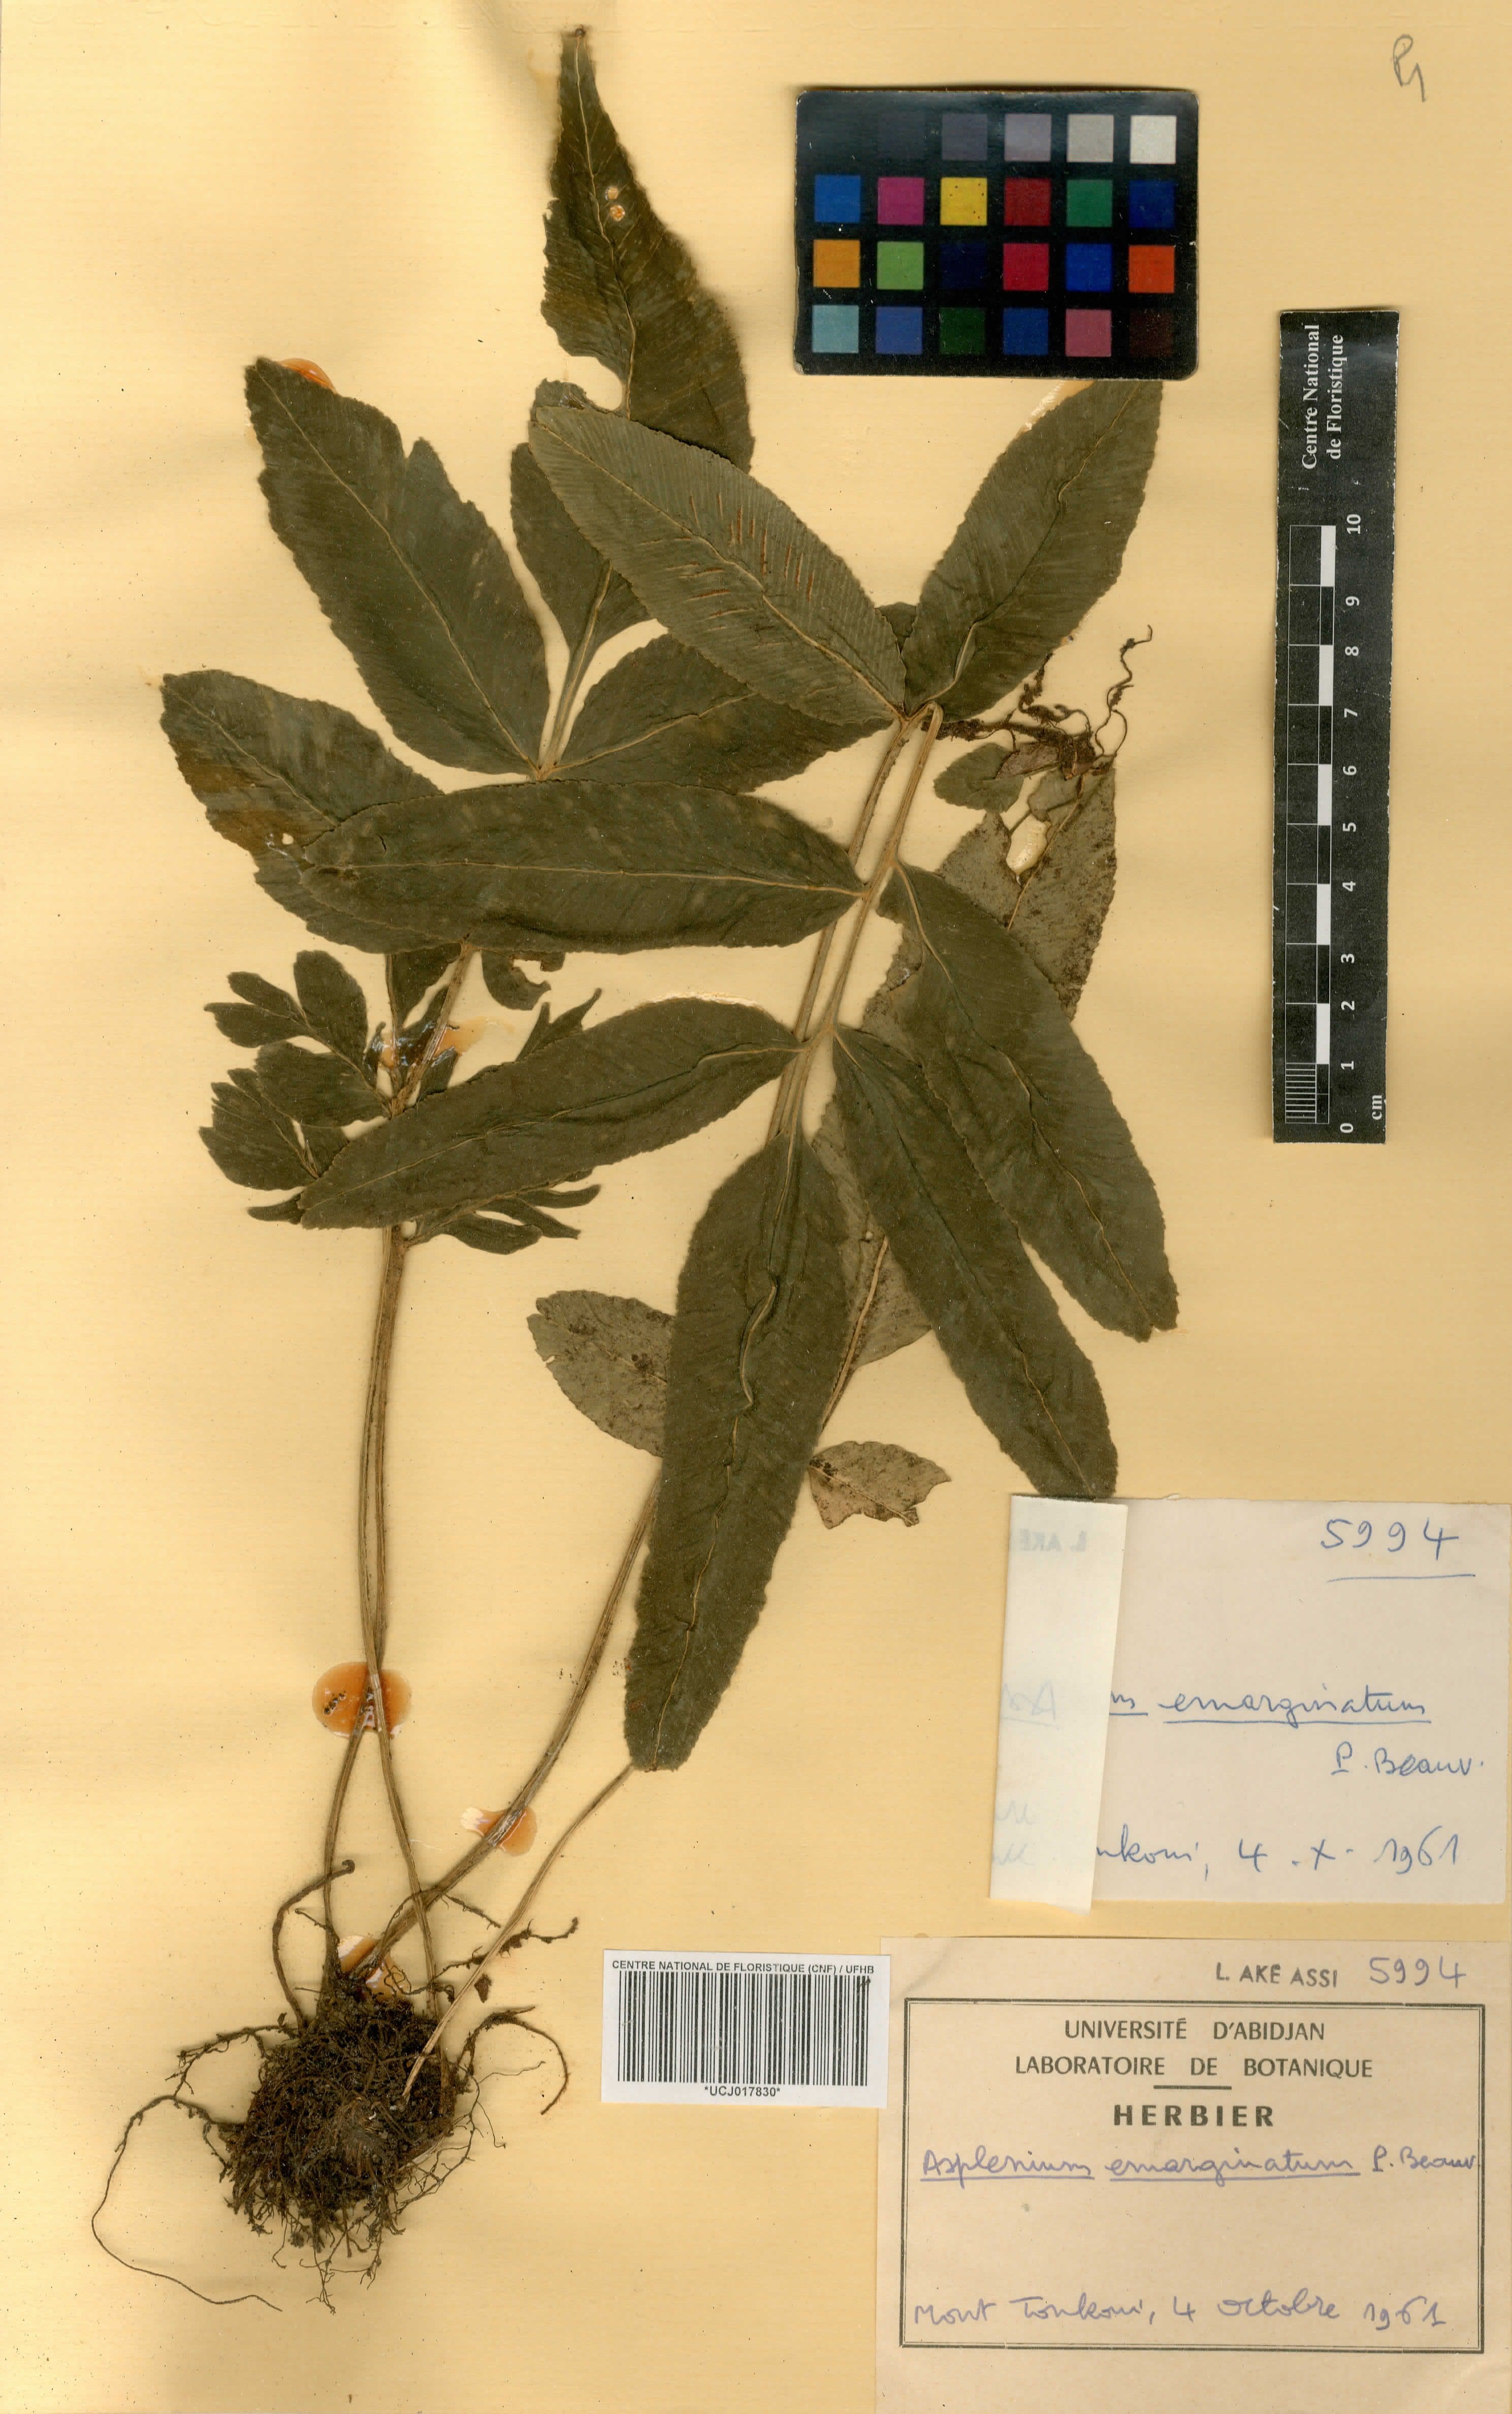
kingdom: Plantae
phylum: Tracheophyta
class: Polypodiopsida
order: Polypodiales
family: Aspleniaceae
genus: Asplenium
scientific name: Asplenium emarginatum
